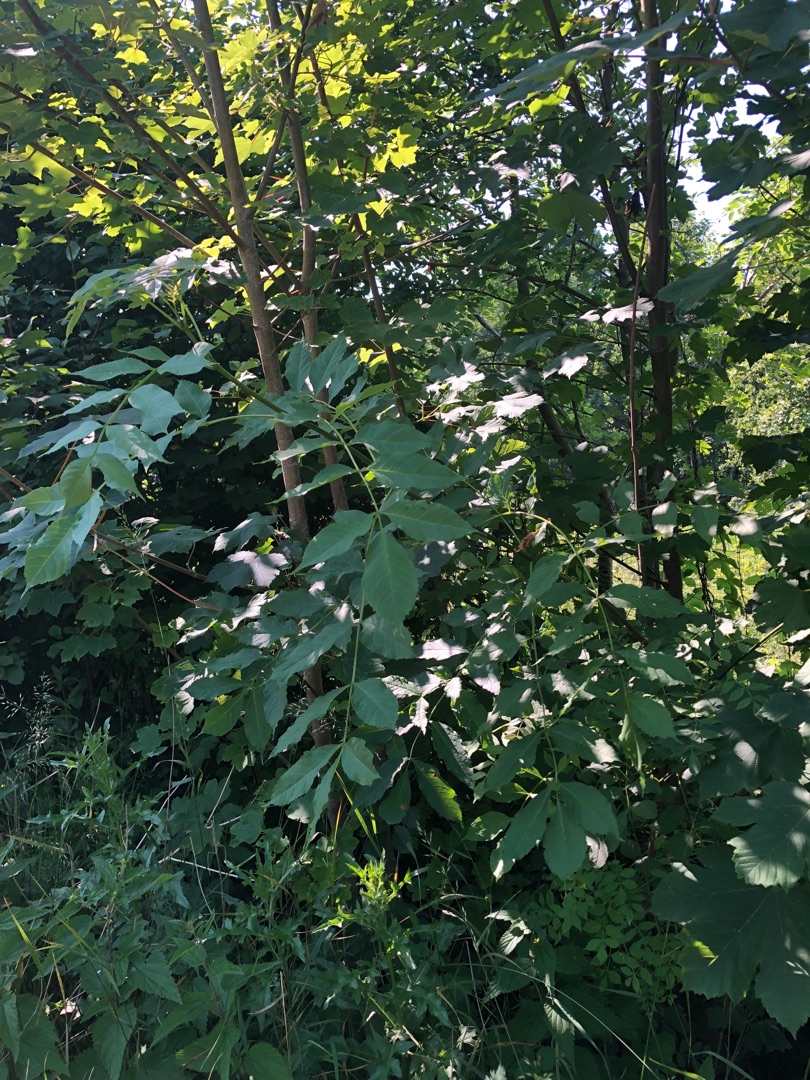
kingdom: Plantae
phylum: Tracheophyta
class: Magnoliopsida
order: Lamiales
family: Oleaceae
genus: Fraxinus
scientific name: Fraxinus excelsior
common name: Ask
